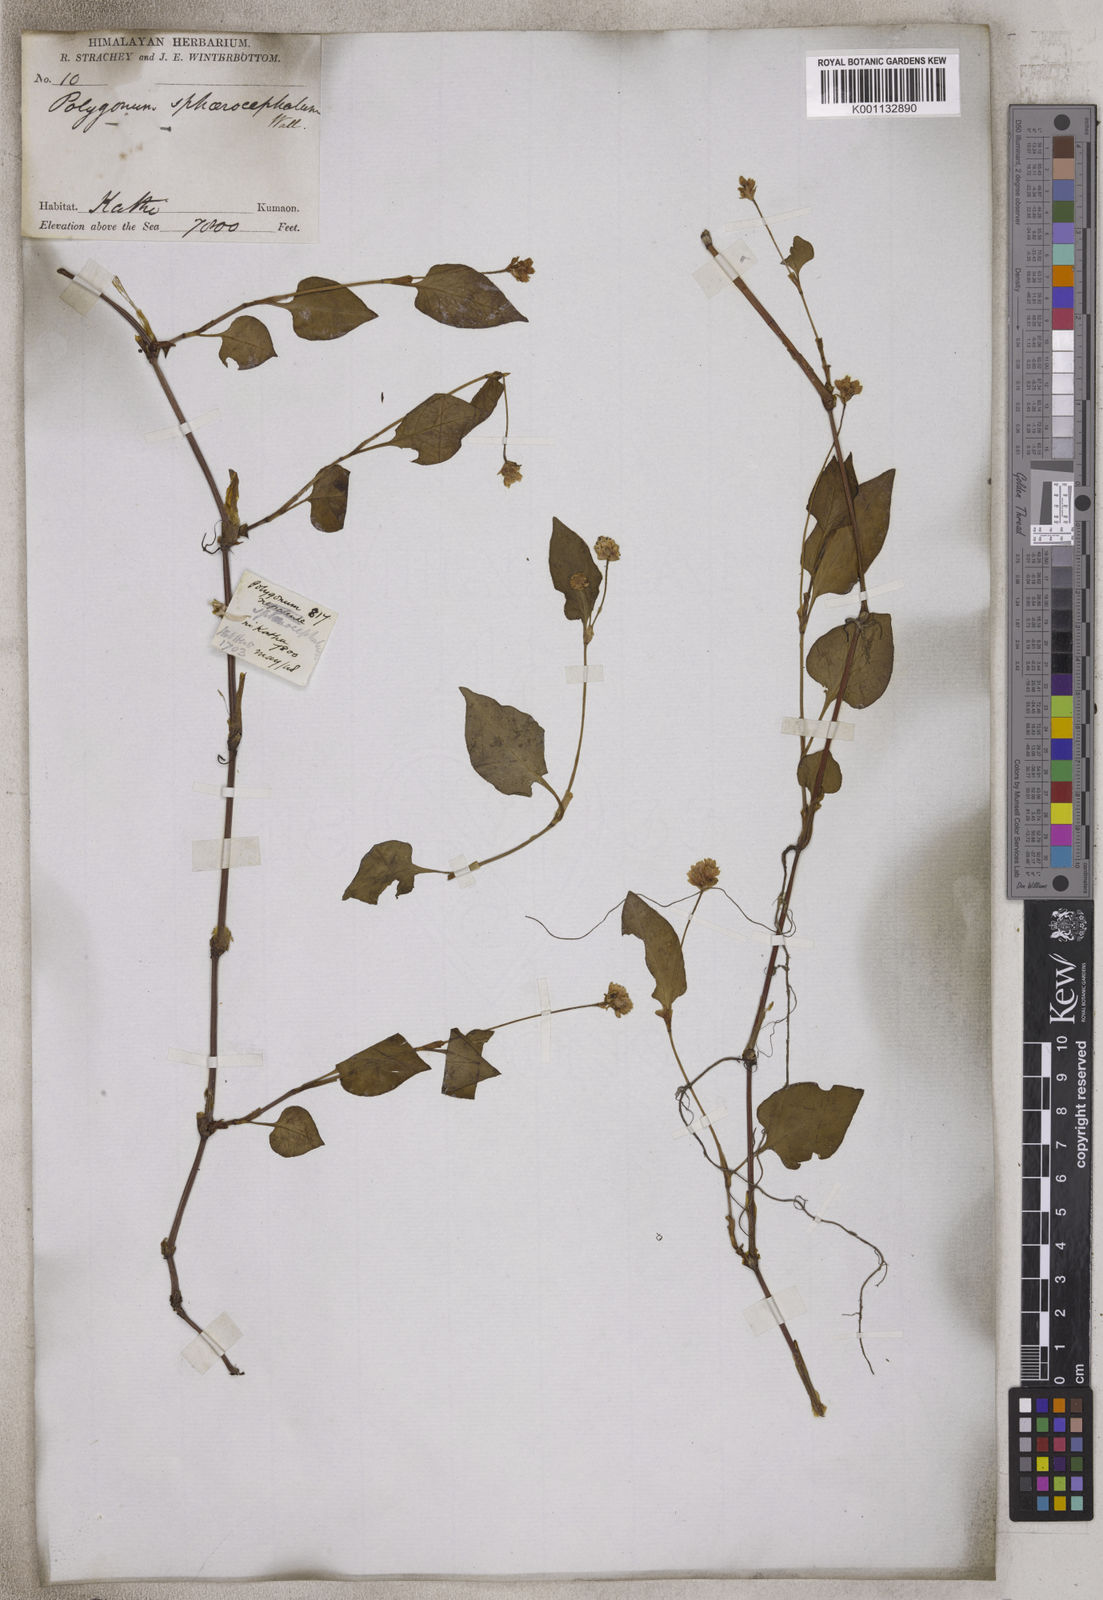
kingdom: Plantae
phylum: Tracheophyta
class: Magnoliopsida
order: Caryophyllales
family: Polygonaceae
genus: Polygonum
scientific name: Polygonum
